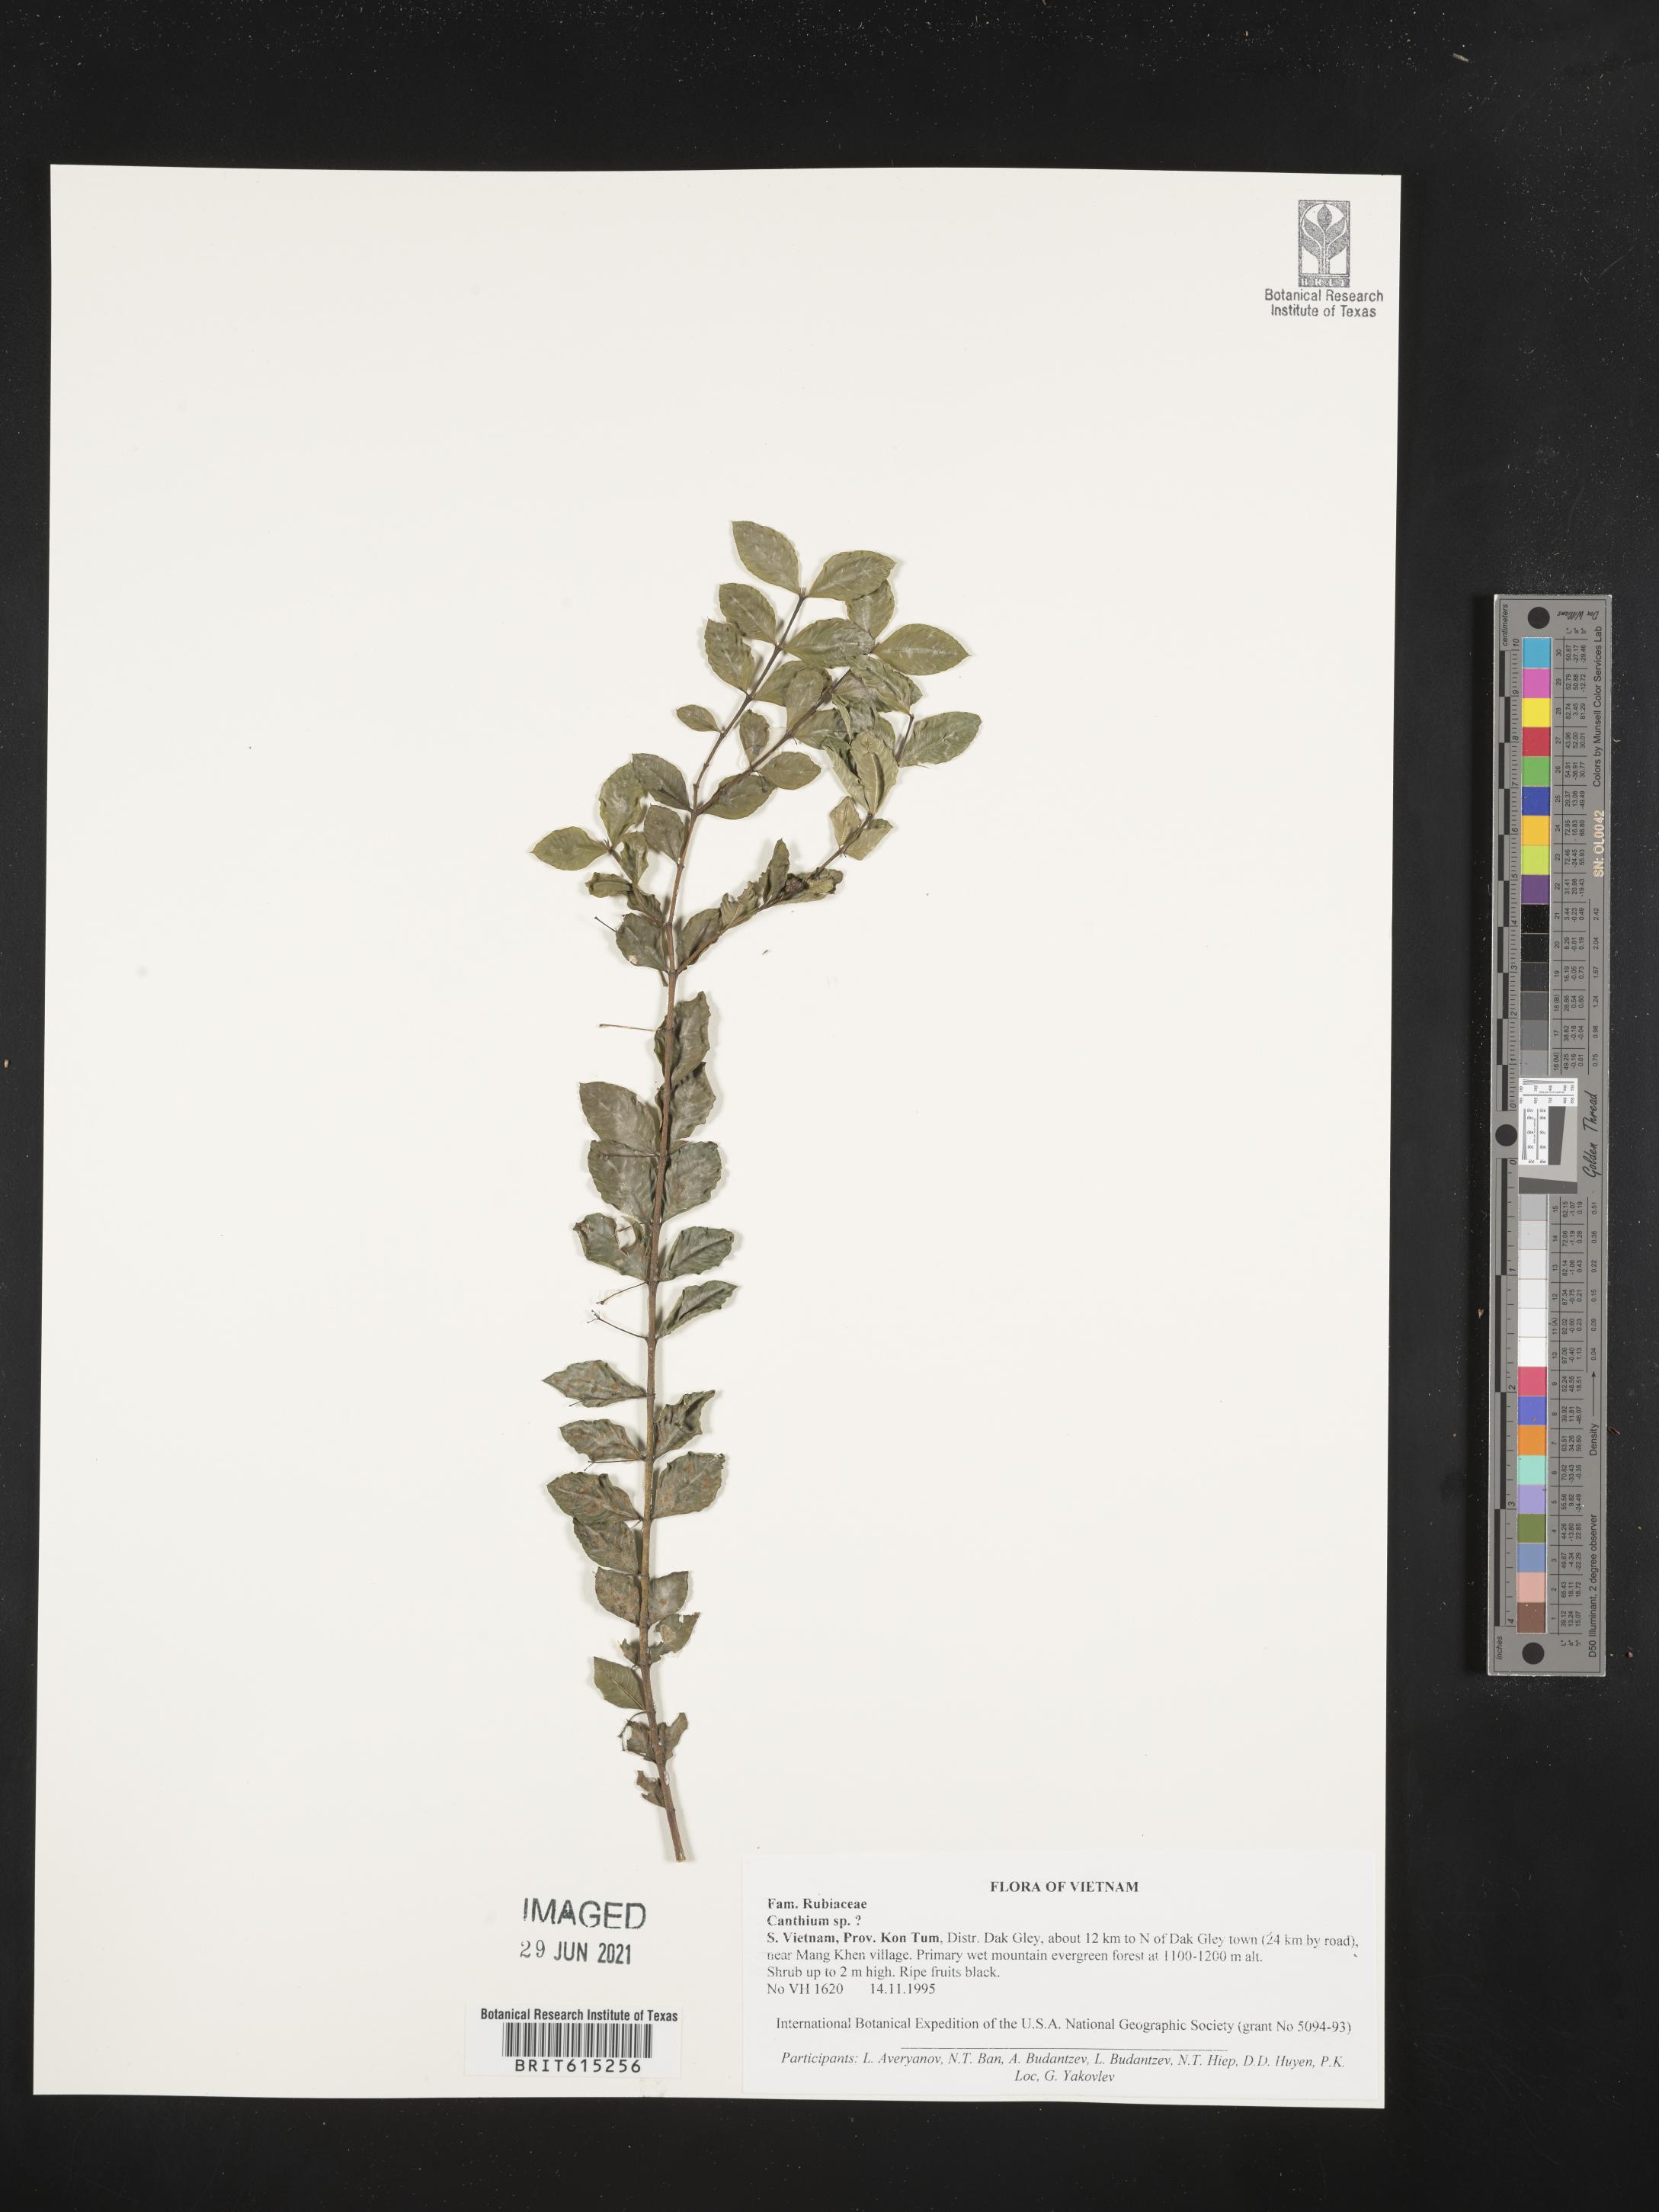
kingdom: Plantae
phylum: Tracheophyta
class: Magnoliopsida
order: Gentianales
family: Rubiaceae
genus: Canthium
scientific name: Canthium
